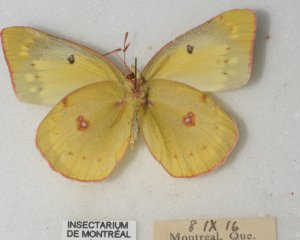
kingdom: Animalia
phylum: Arthropoda
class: Insecta
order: Lepidoptera
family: Pieridae
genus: Colias
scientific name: Colias philodice
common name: Clouded Sulphur
